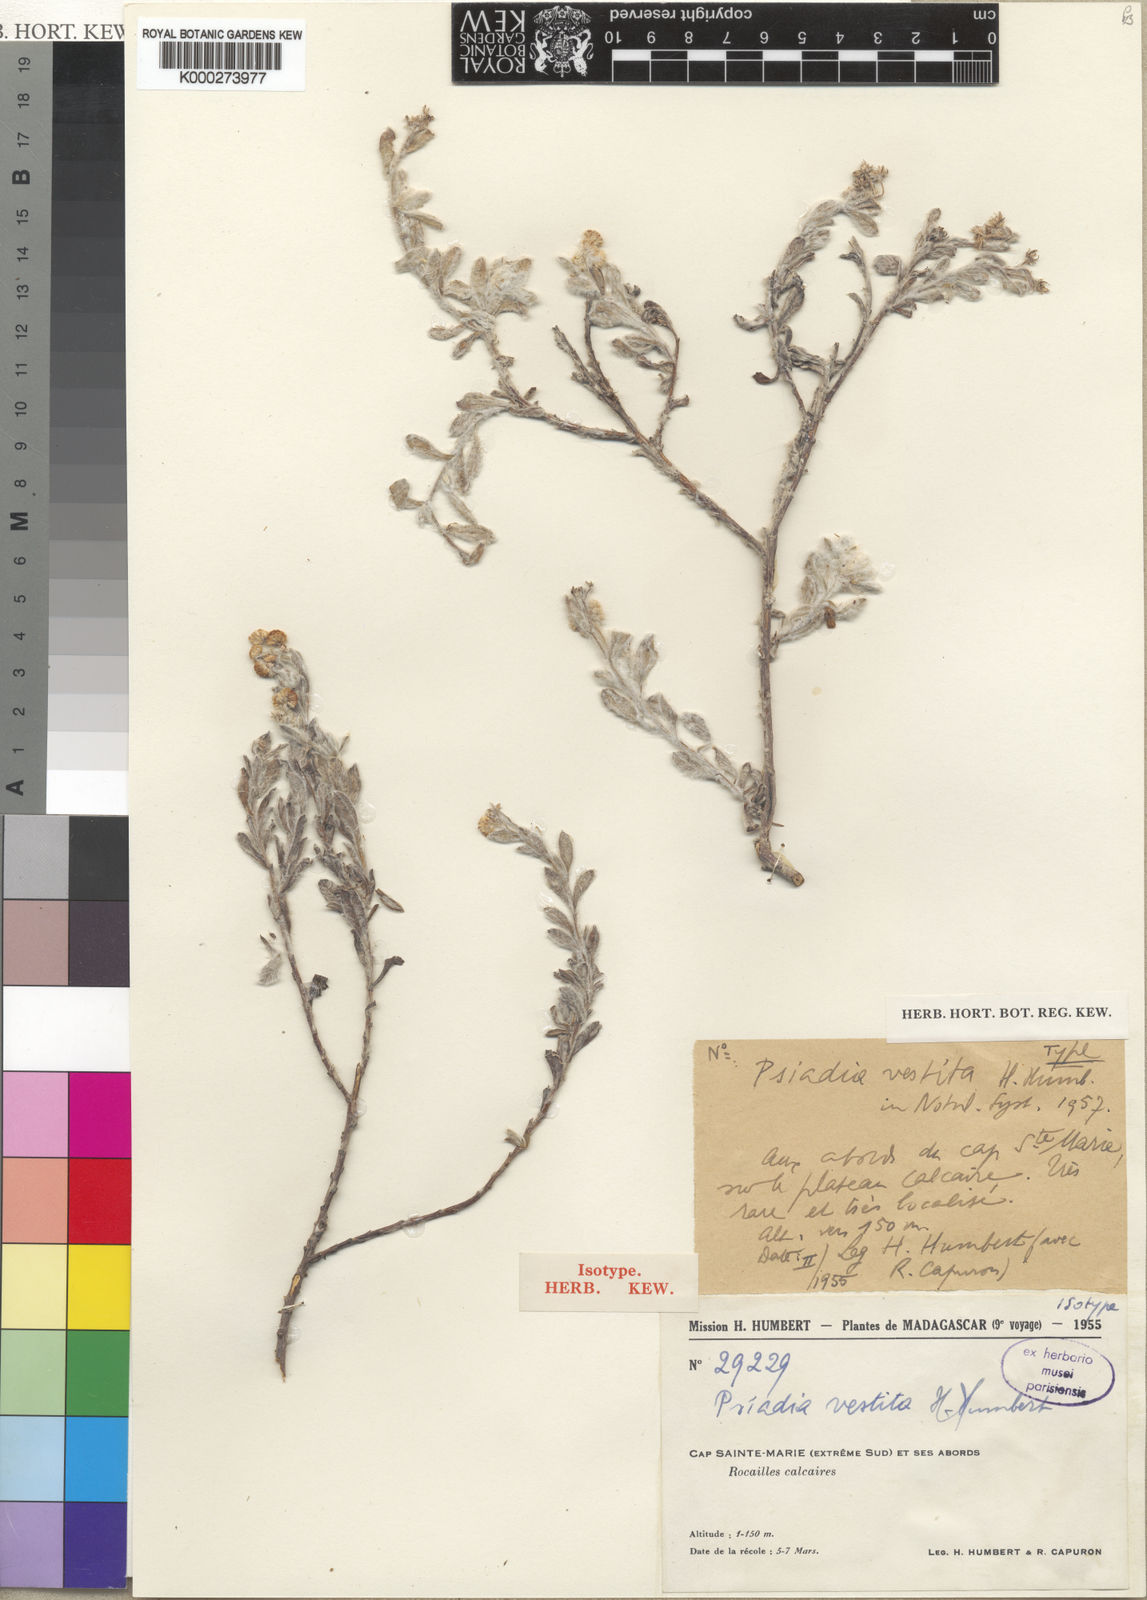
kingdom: Plantae
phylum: Tracheophyta
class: Magnoliopsida
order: Asterales
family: Asteraceae
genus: Psiadia
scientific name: Psiadia vestita
